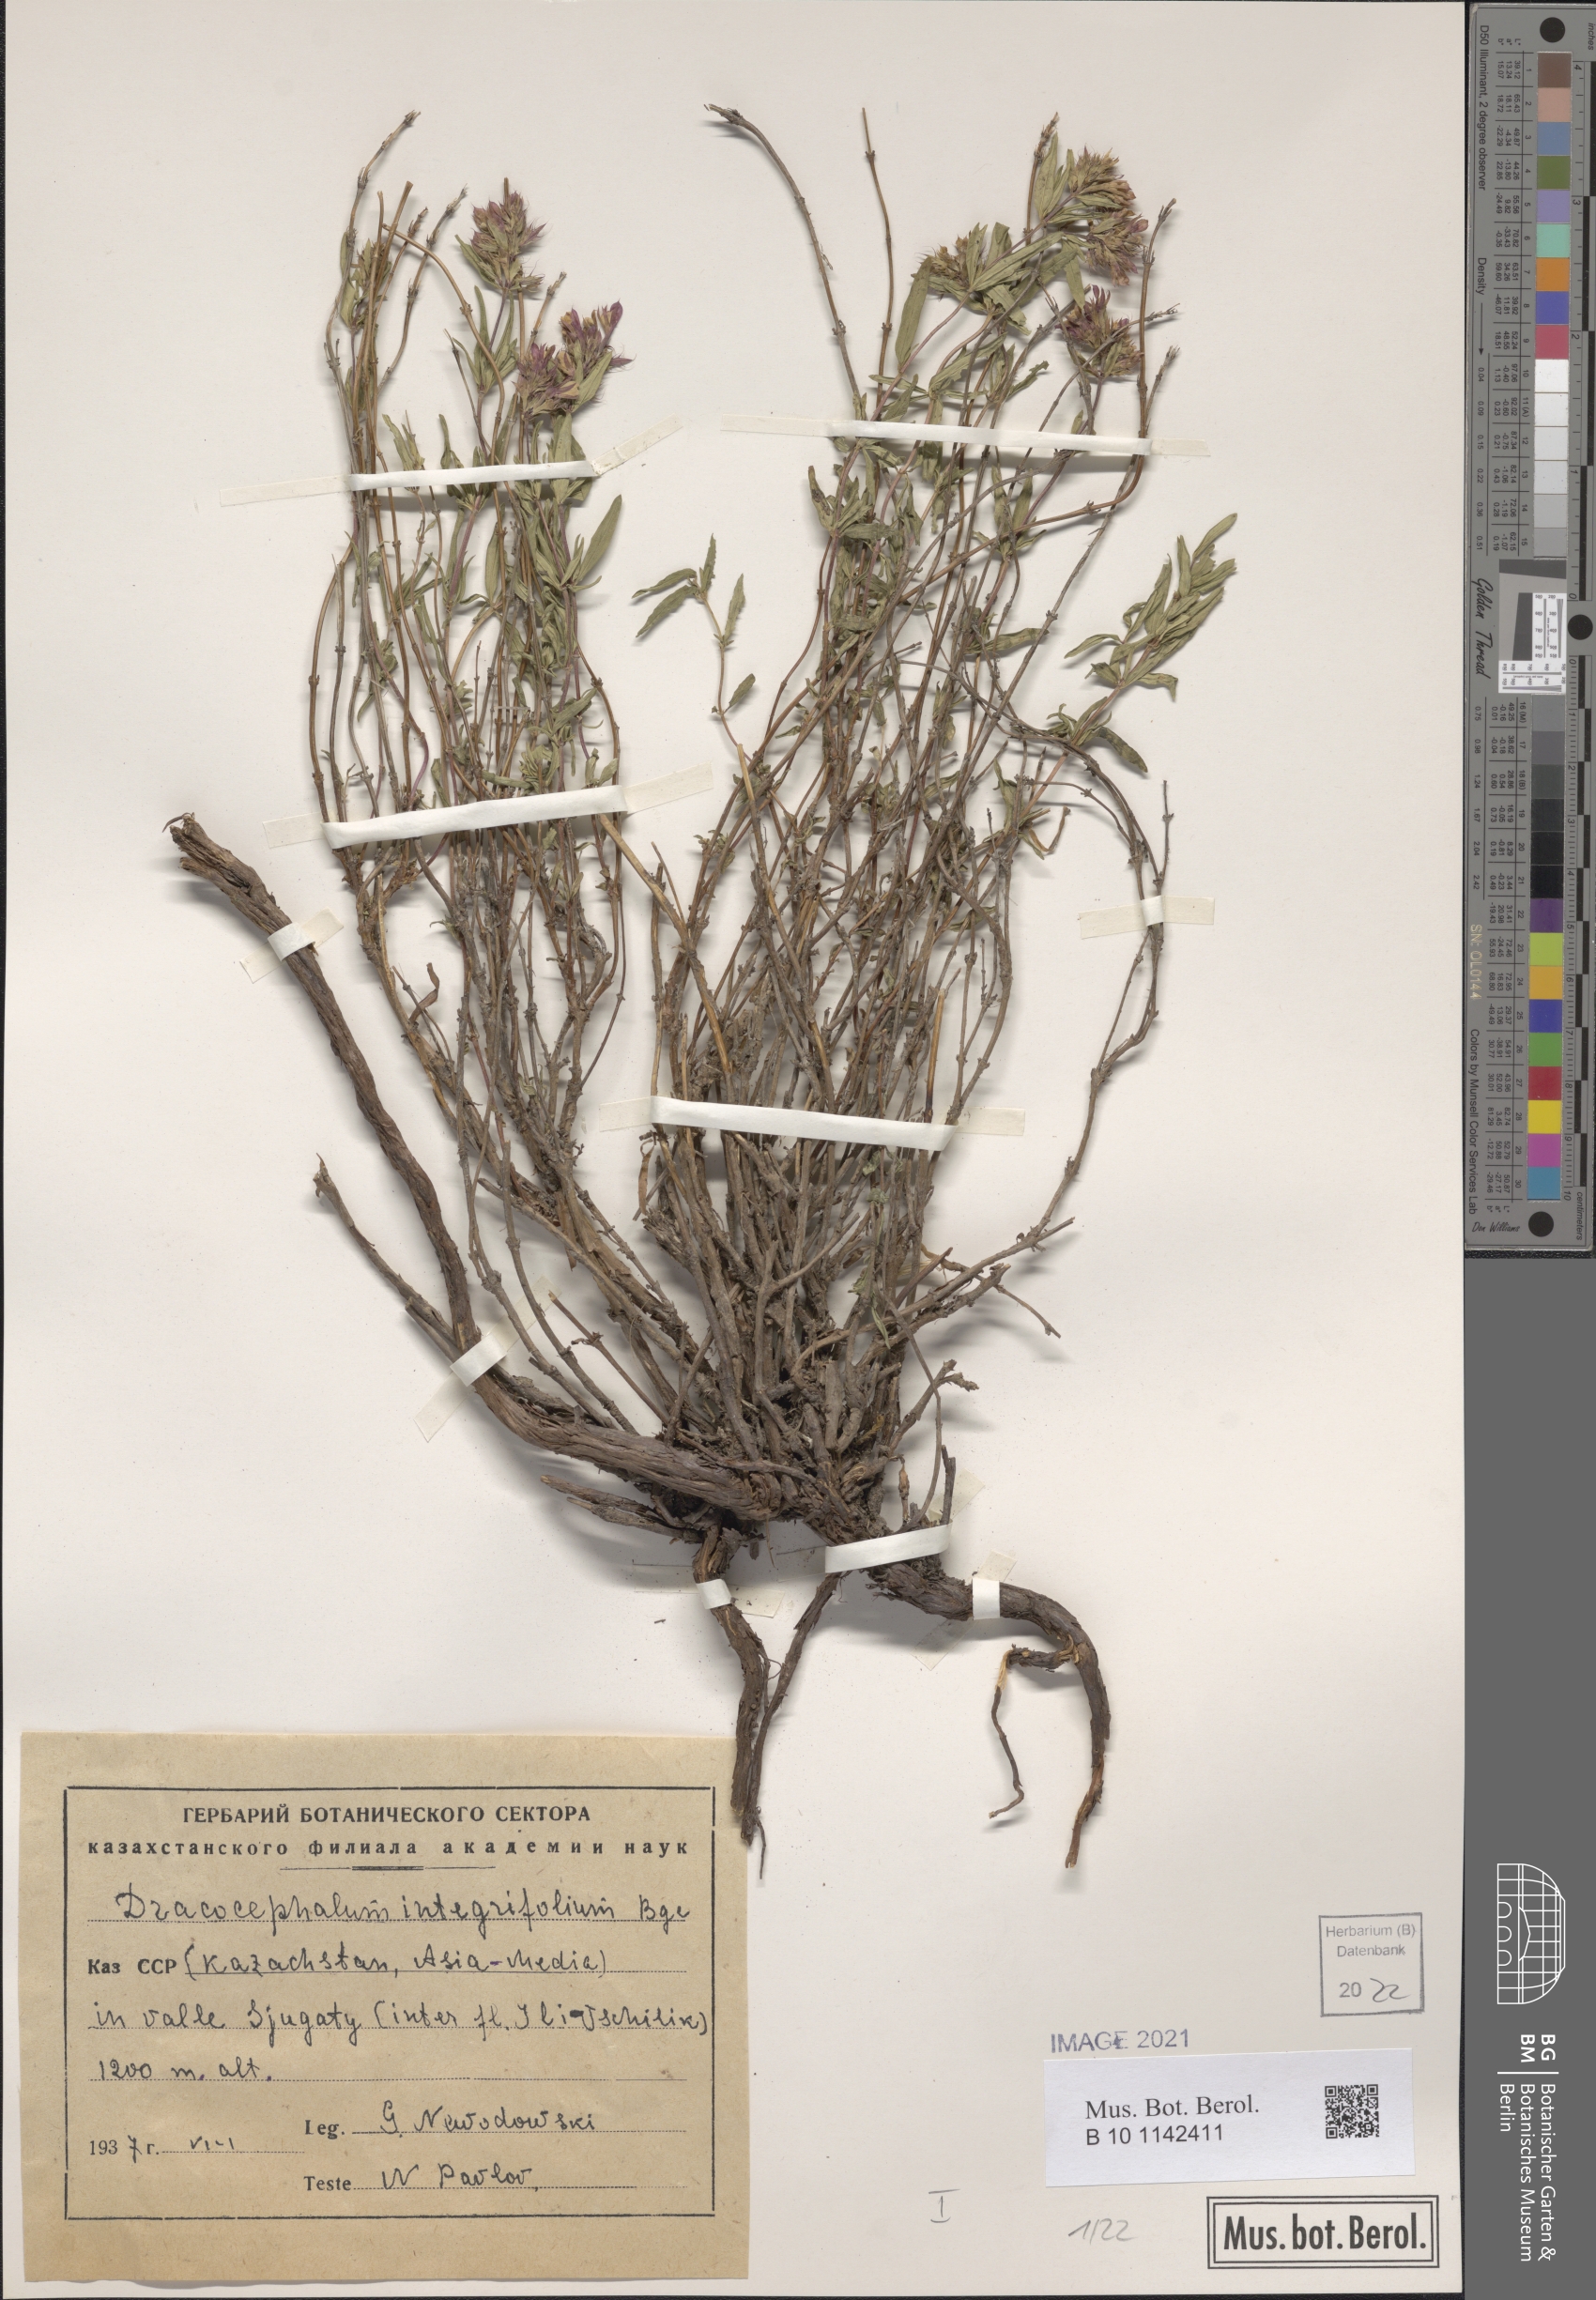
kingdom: Plantae
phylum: Tracheophyta
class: Magnoliopsida
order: Lamiales
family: Lamiaceae
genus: Dracocephalum
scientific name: Dracocephalum integrifolium
